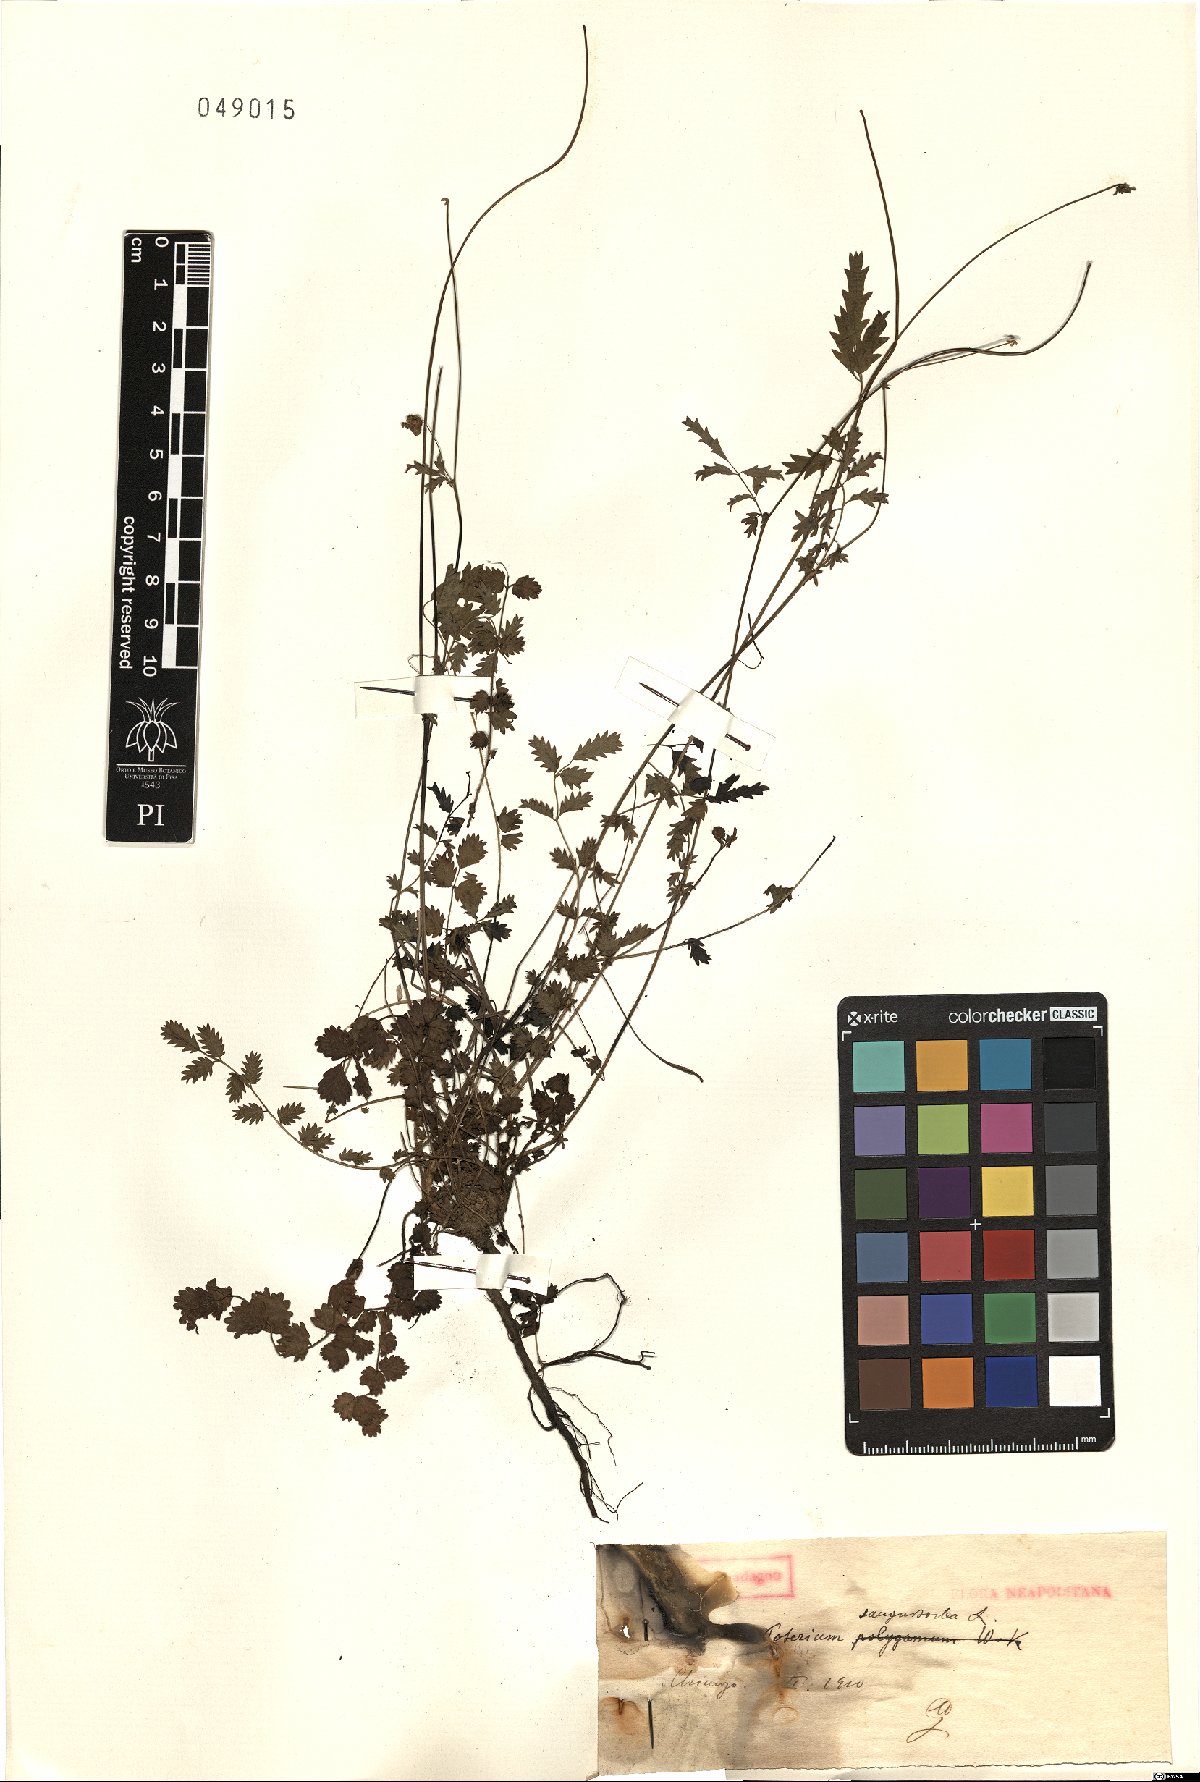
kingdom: Plantae
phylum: Tracheophyta
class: Magnoliopsida
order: Rosales
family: Rosaceae
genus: Poterium
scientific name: Poterium sanguisorba
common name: Salad burnet
